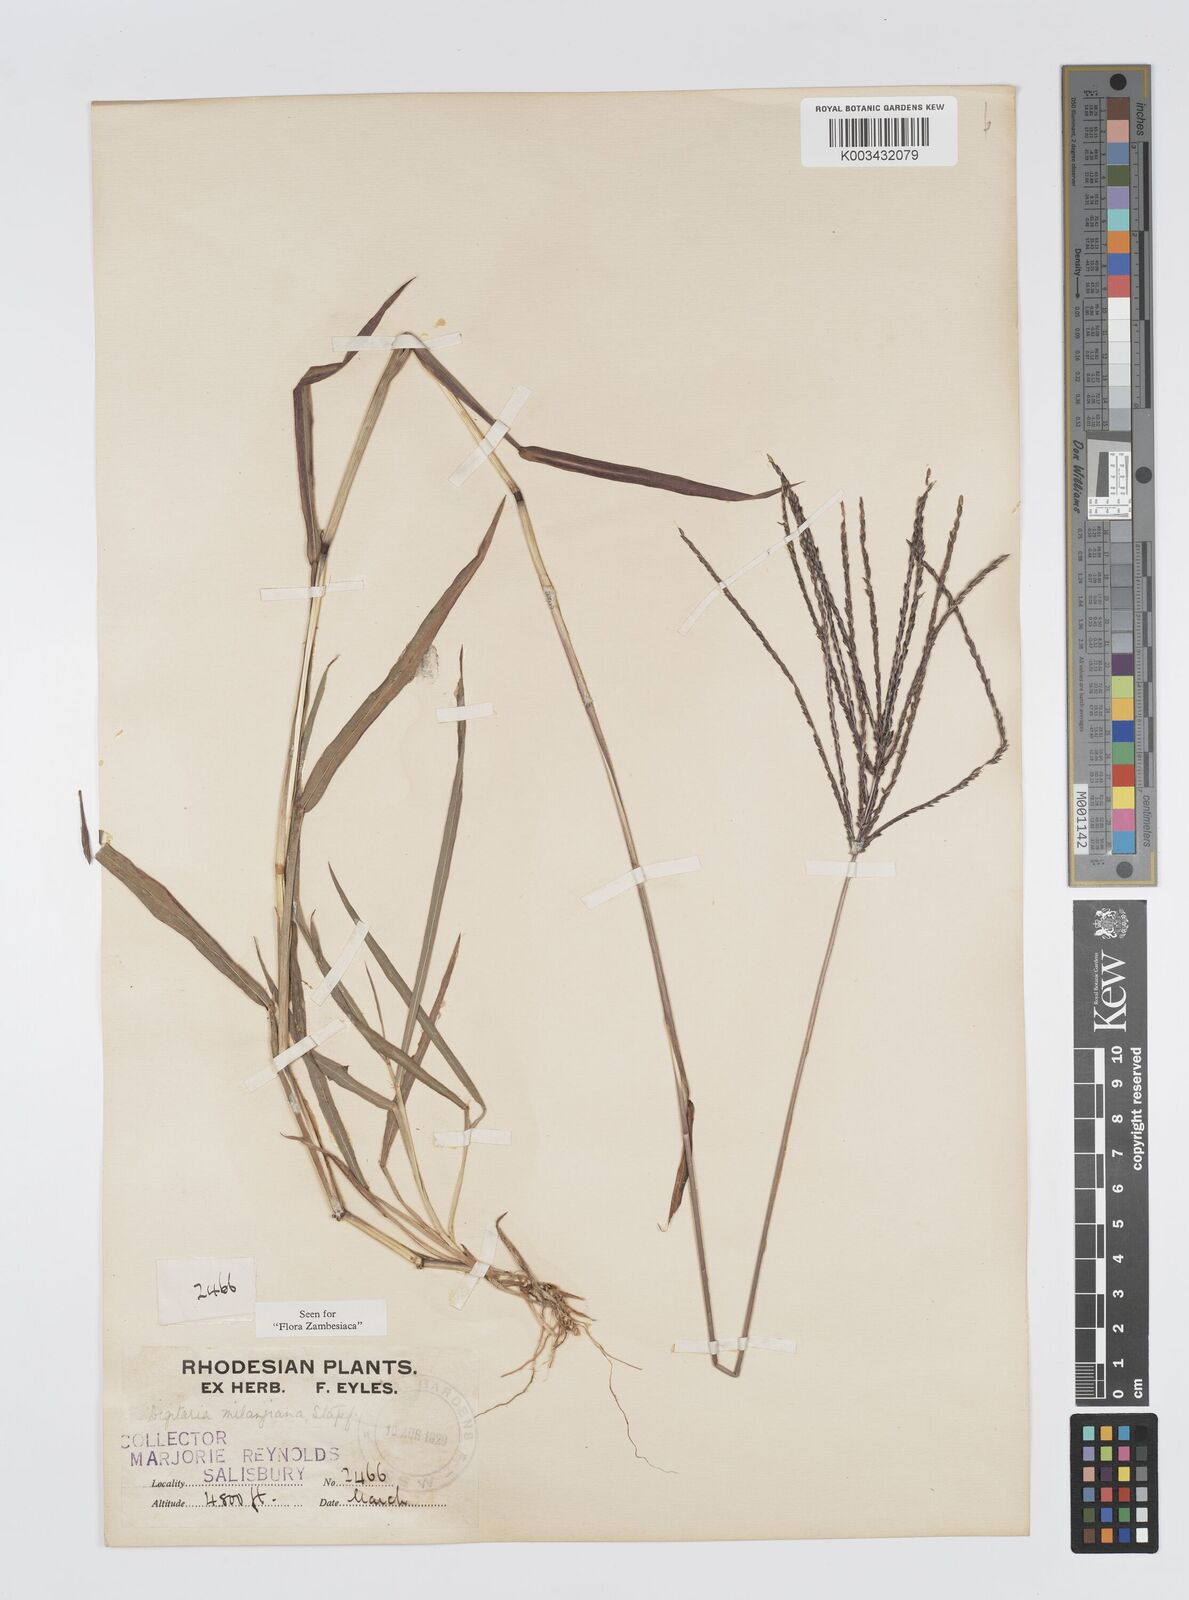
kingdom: Plantae
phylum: Tracheophyta
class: Liliopsida
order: Poales
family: Poaceae
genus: Digitaria
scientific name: Digitaria milanjiana
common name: Madagascar crabgrass
